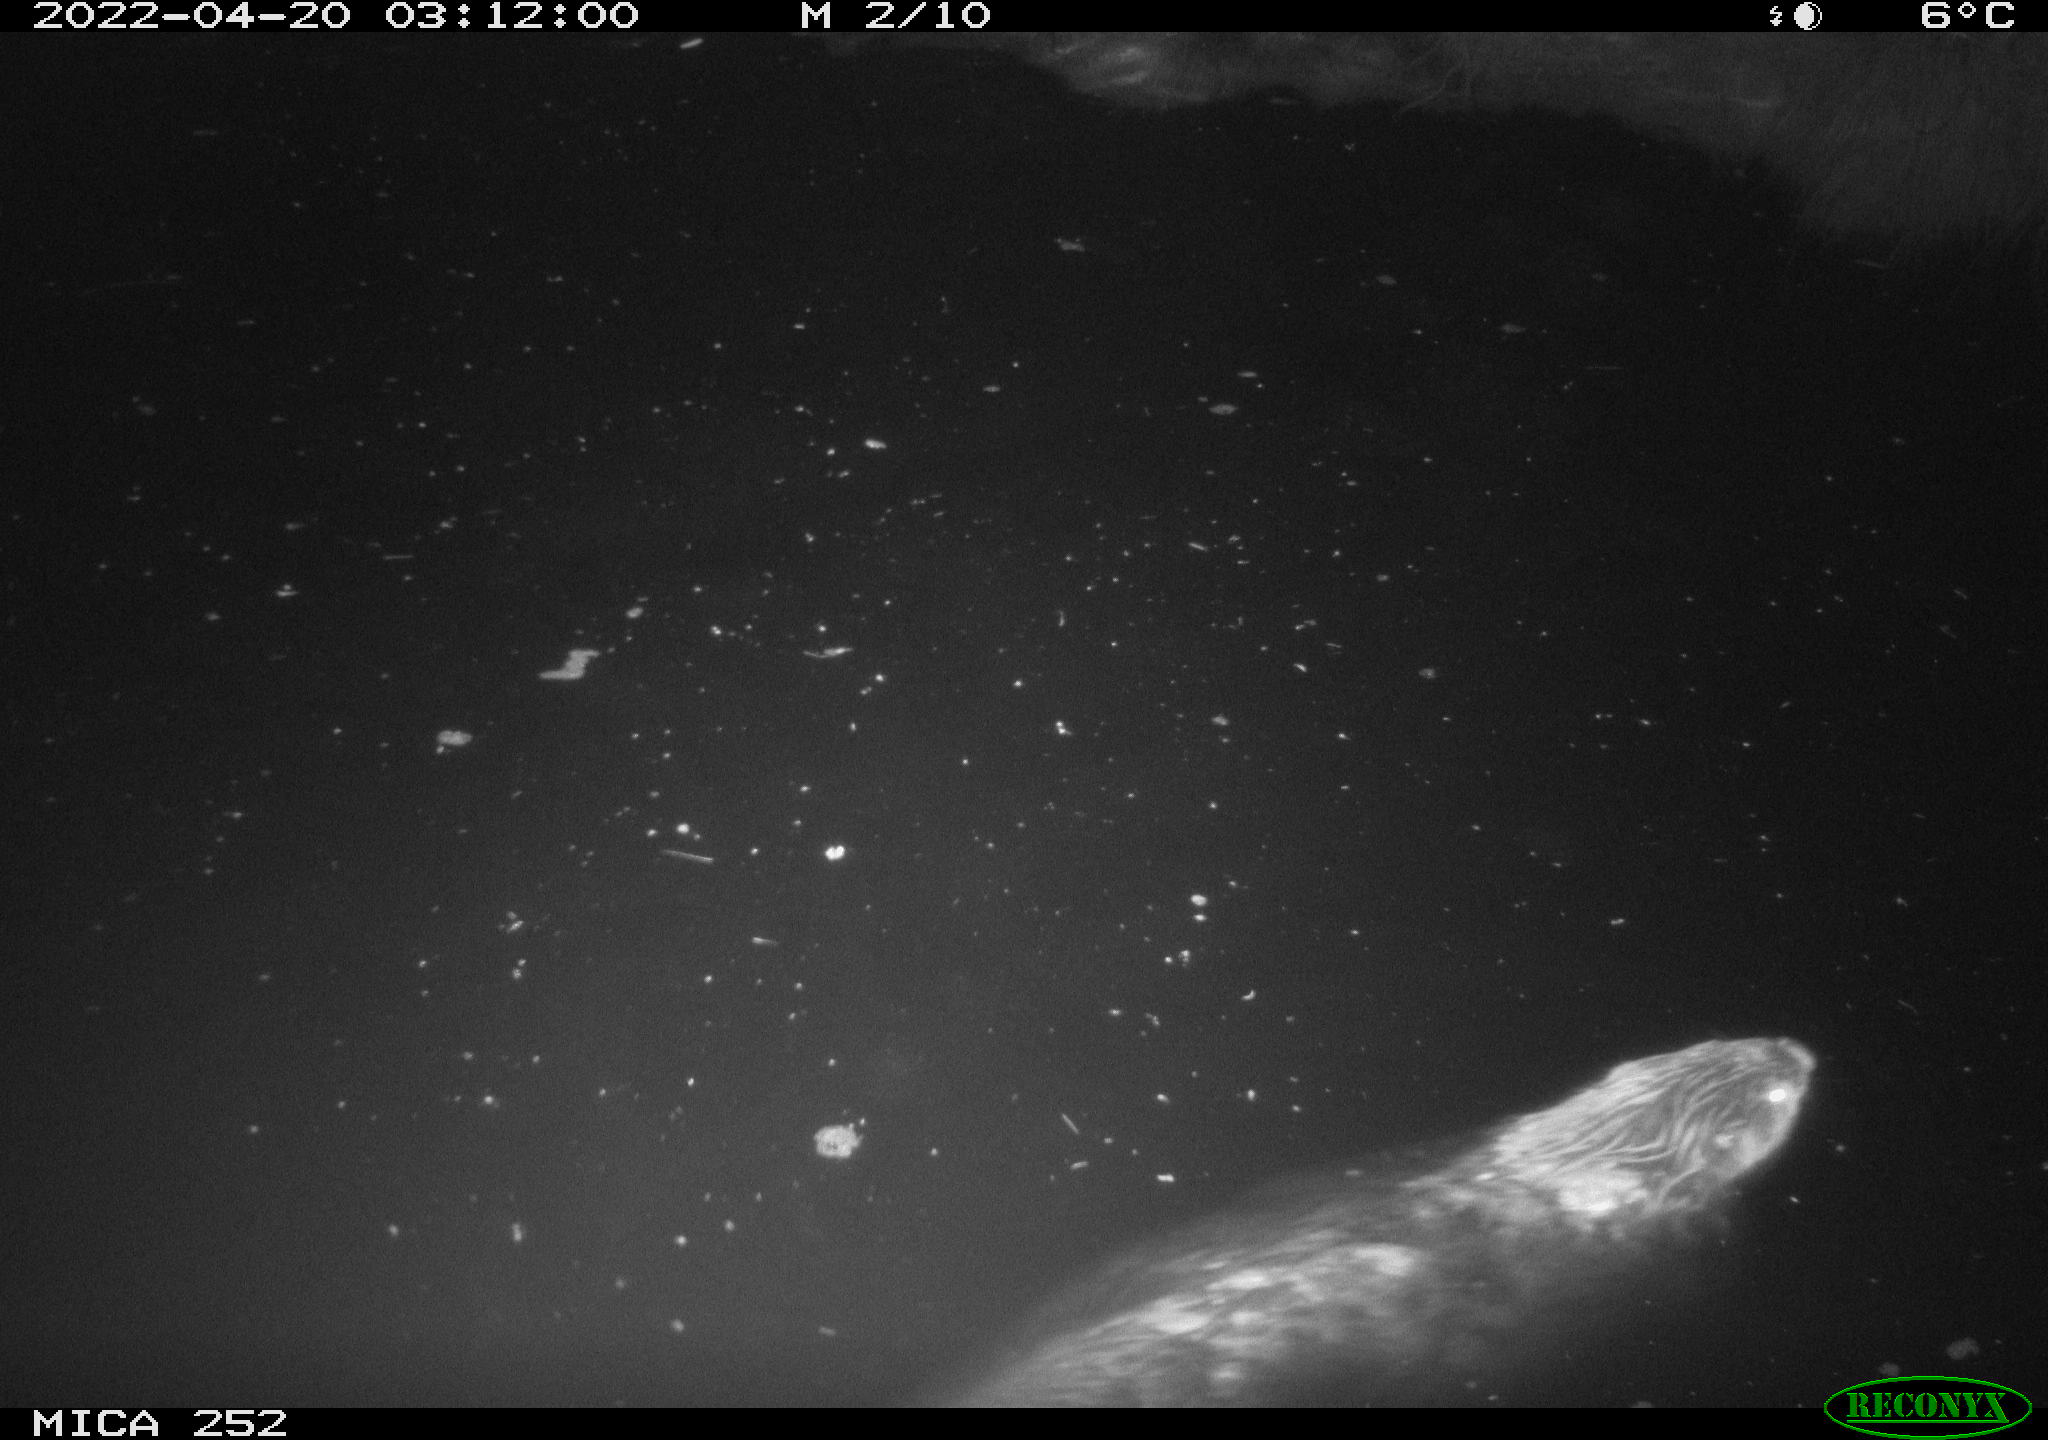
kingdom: Animalia
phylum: Chordata
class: Mammalia
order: Rodentia
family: Castoridae
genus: Castor
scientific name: Castor fiber
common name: Eurasian beaver
